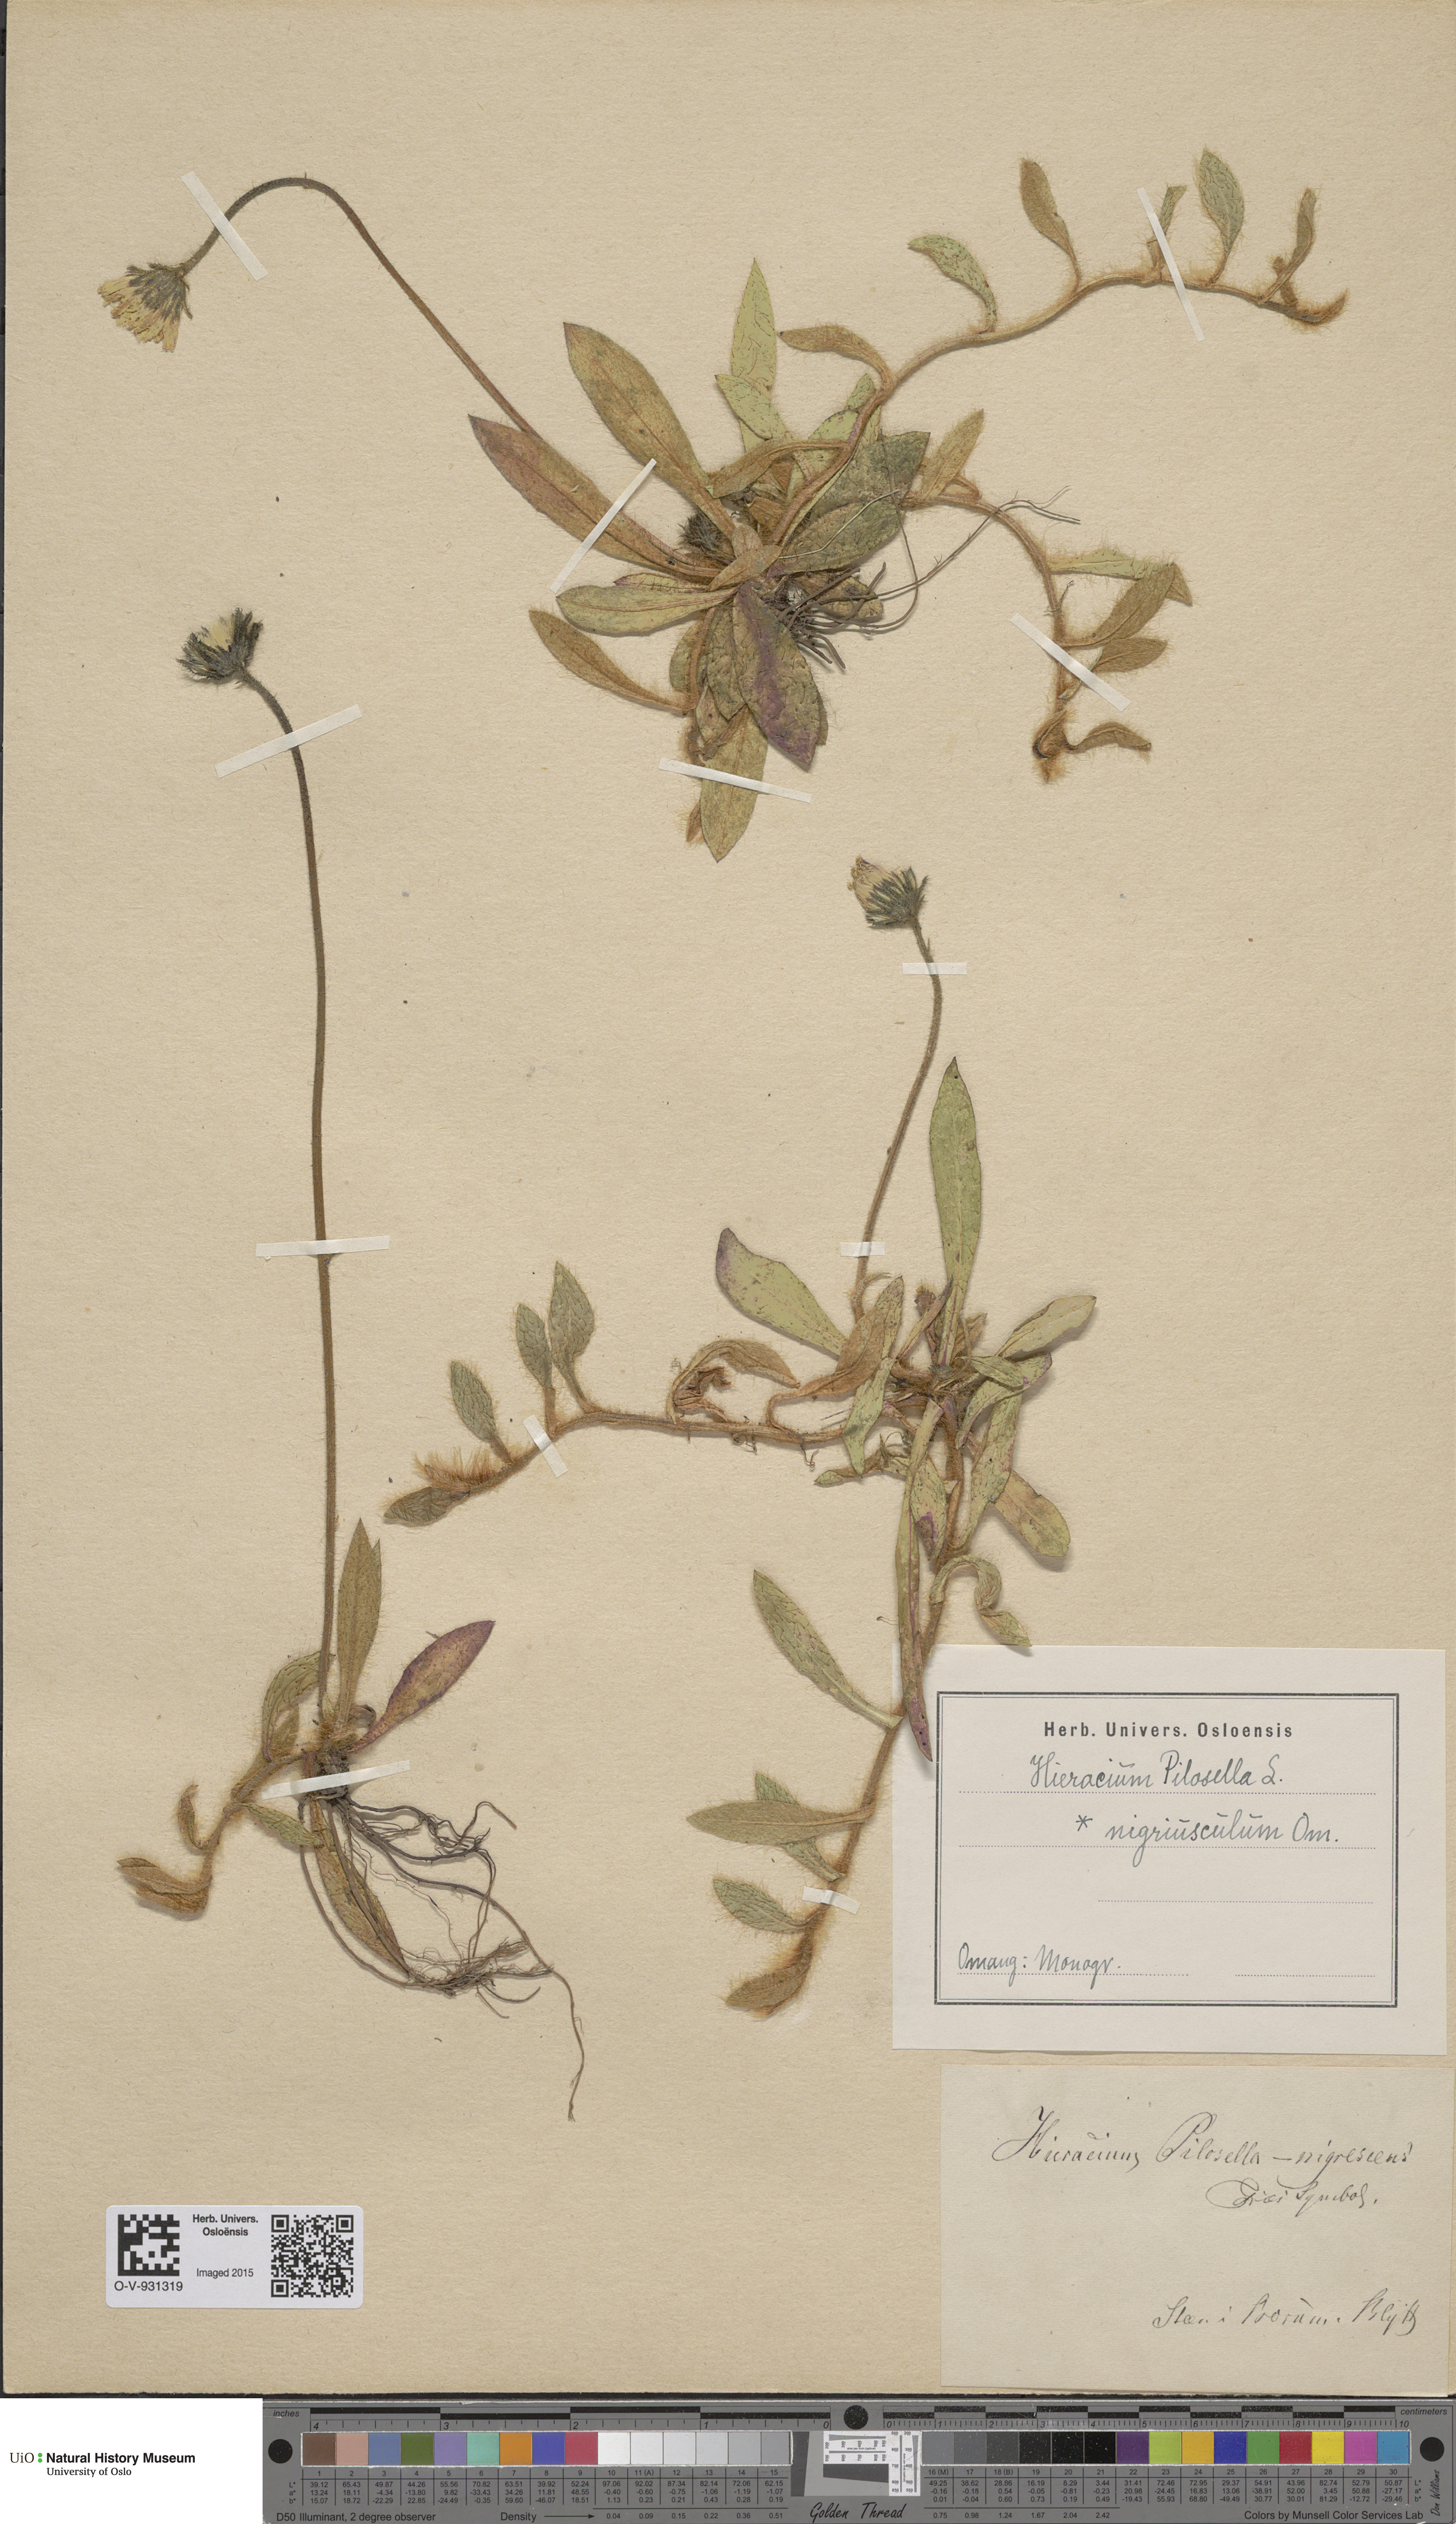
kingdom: Plantae
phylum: Tracheophyta
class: Magnoliopsida
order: Asterales
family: Asteraceae
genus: Pilosella
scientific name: Pilosella officinarum
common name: Mouse-ear hawkweed
